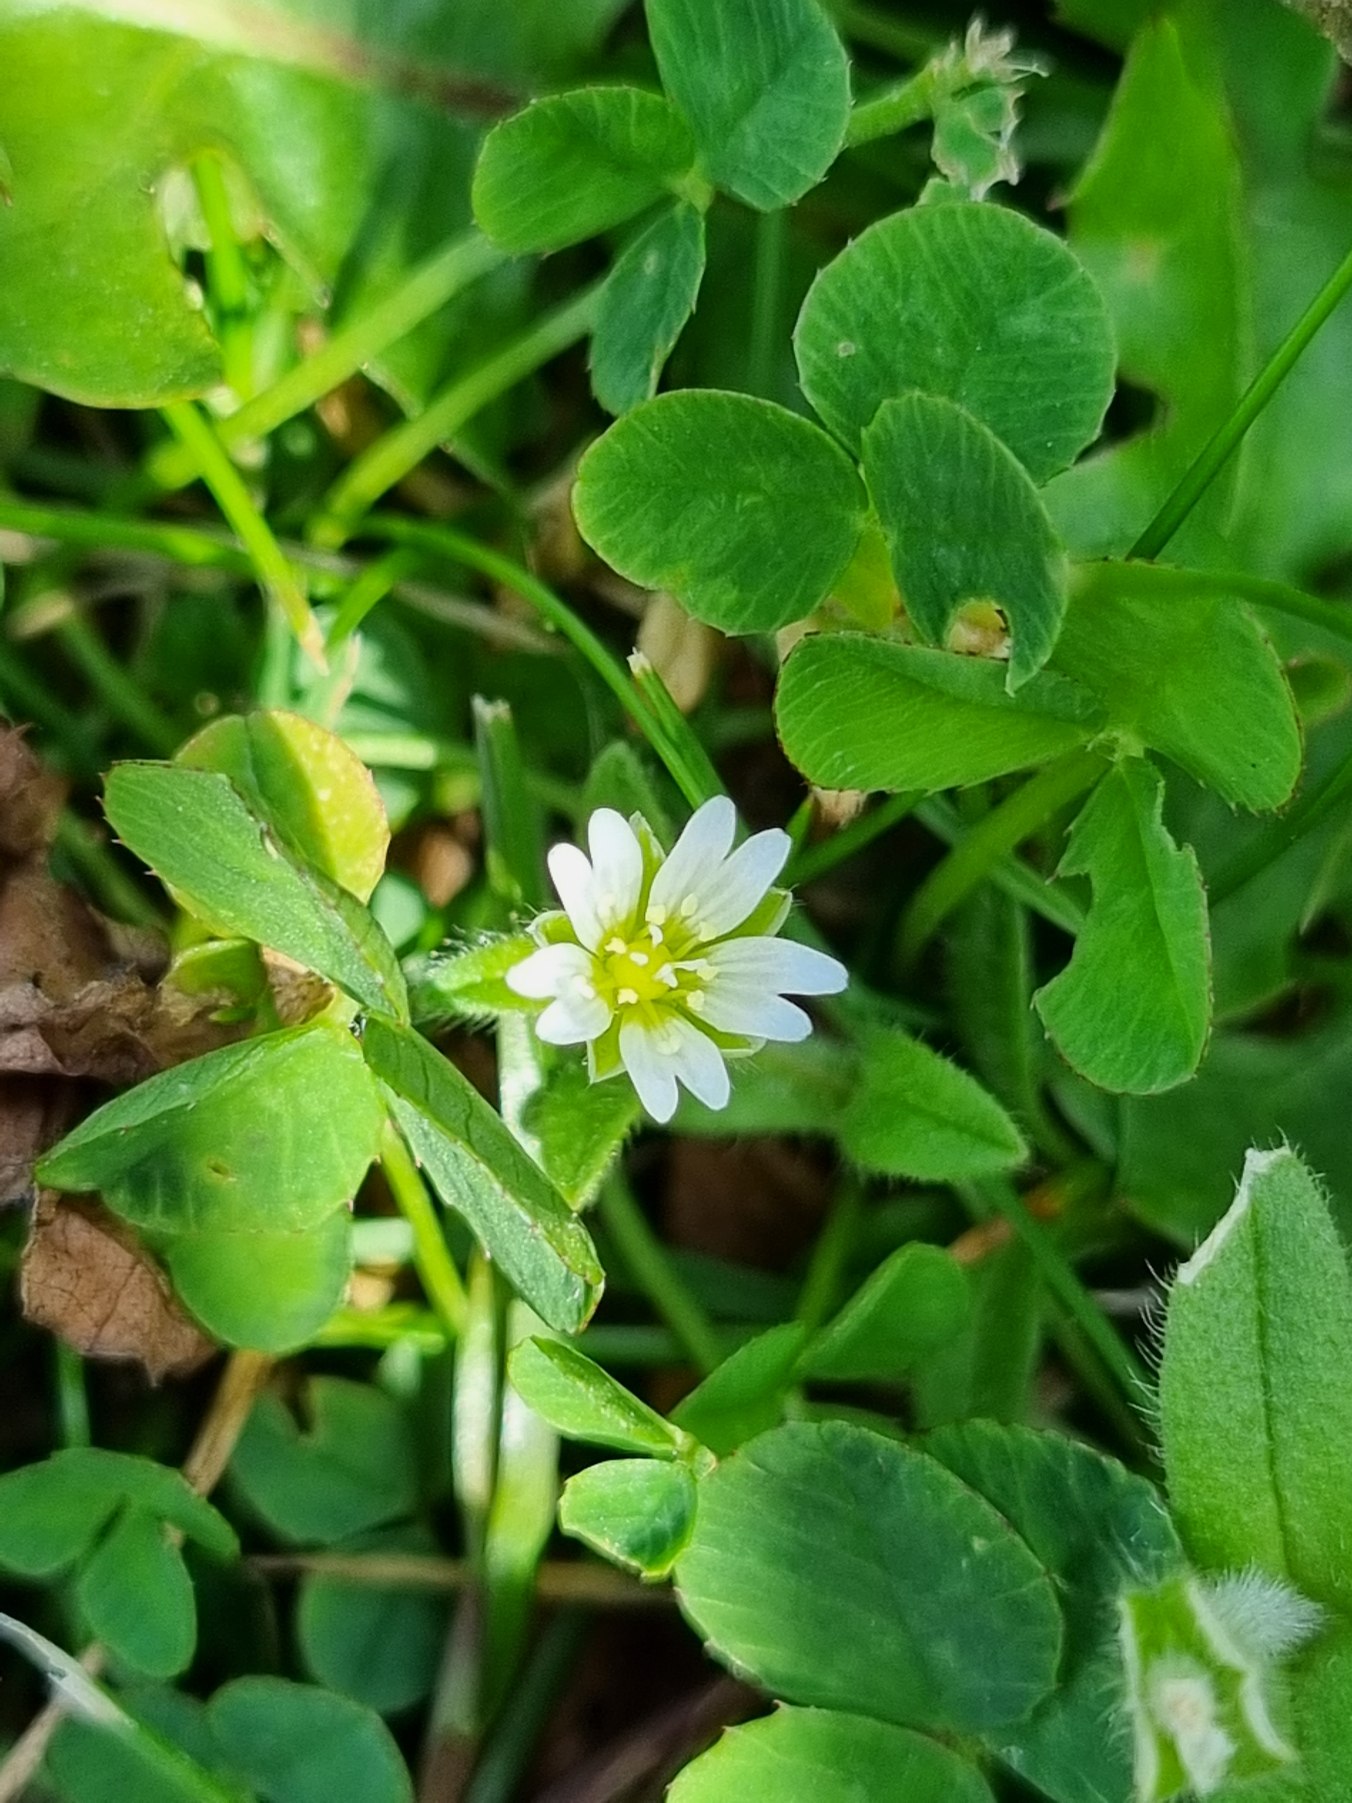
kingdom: Plantae
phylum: Tracheophyta
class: Magnoliopsida
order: Caryophyllales
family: Caryophyllaceae
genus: Cerastium
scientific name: Cerastium fontanum
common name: Almindelig hønsetarm
